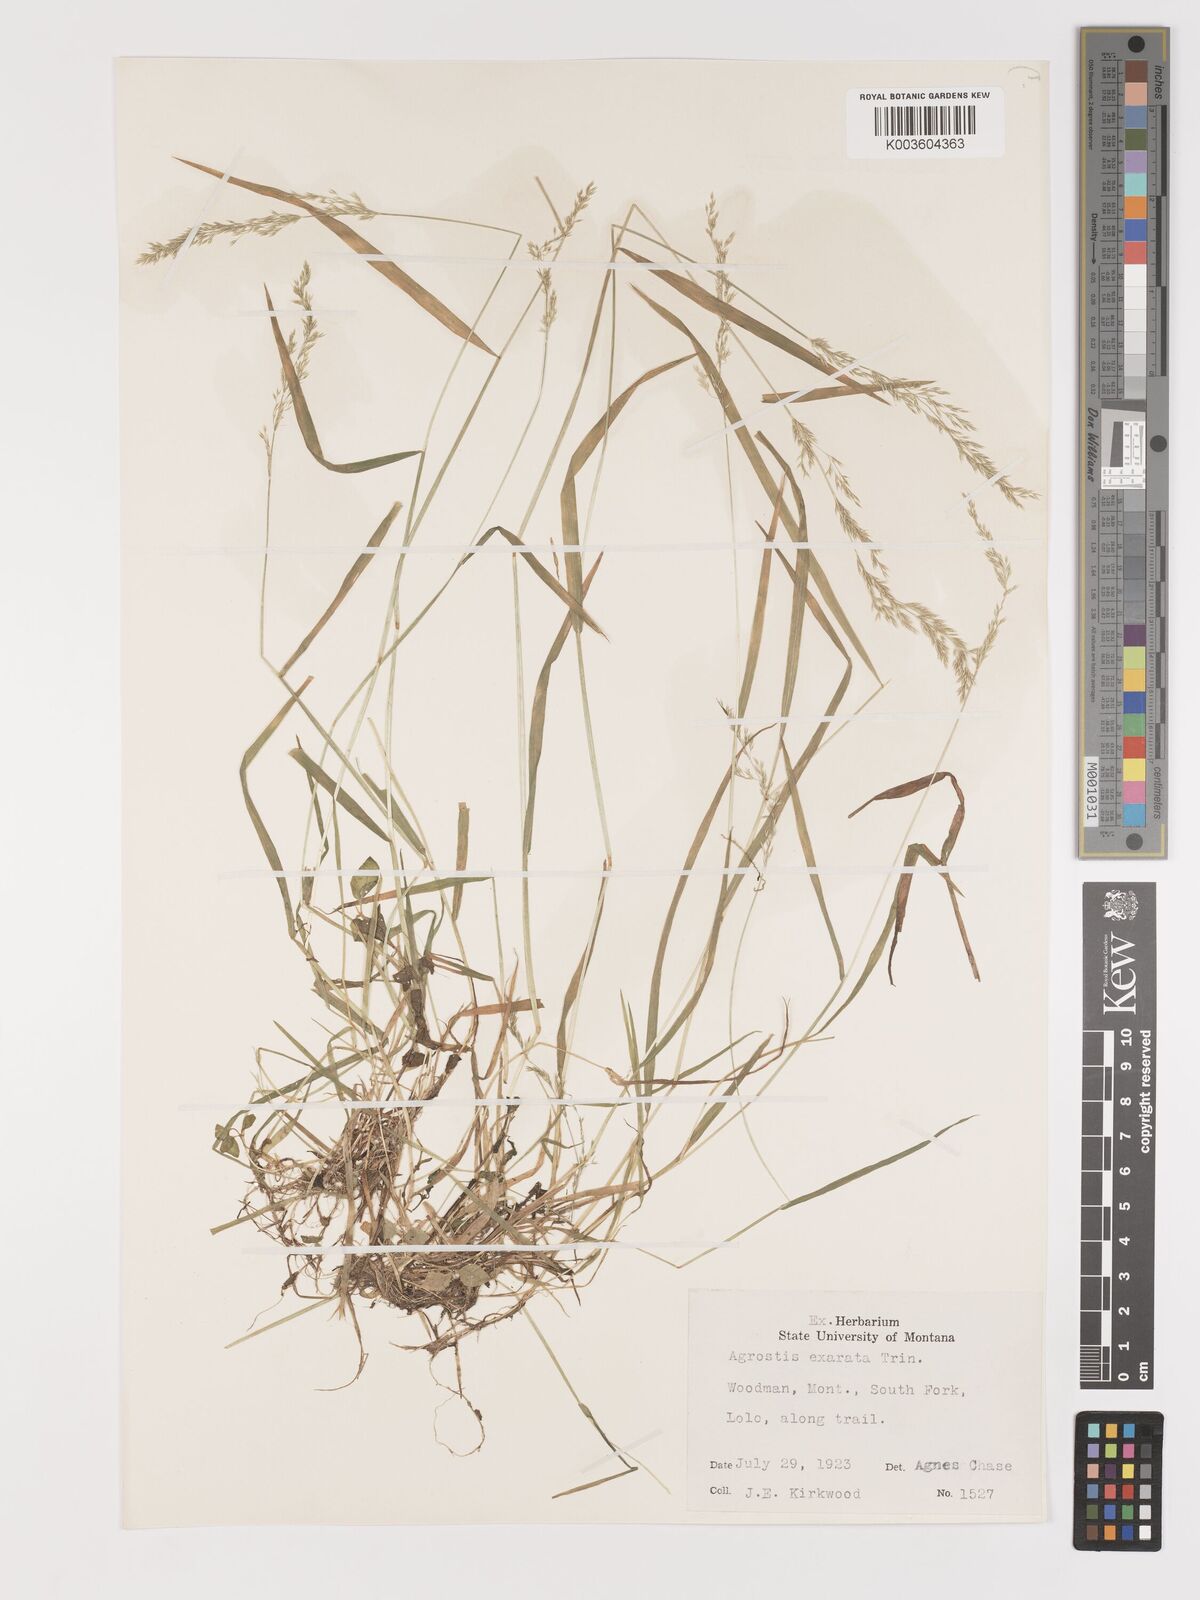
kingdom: Plantae
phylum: Tracheophyta
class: Liliopsida
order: Poales
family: Poaceae
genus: Agrostis
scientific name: Agrostis exarata
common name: Spike bent
